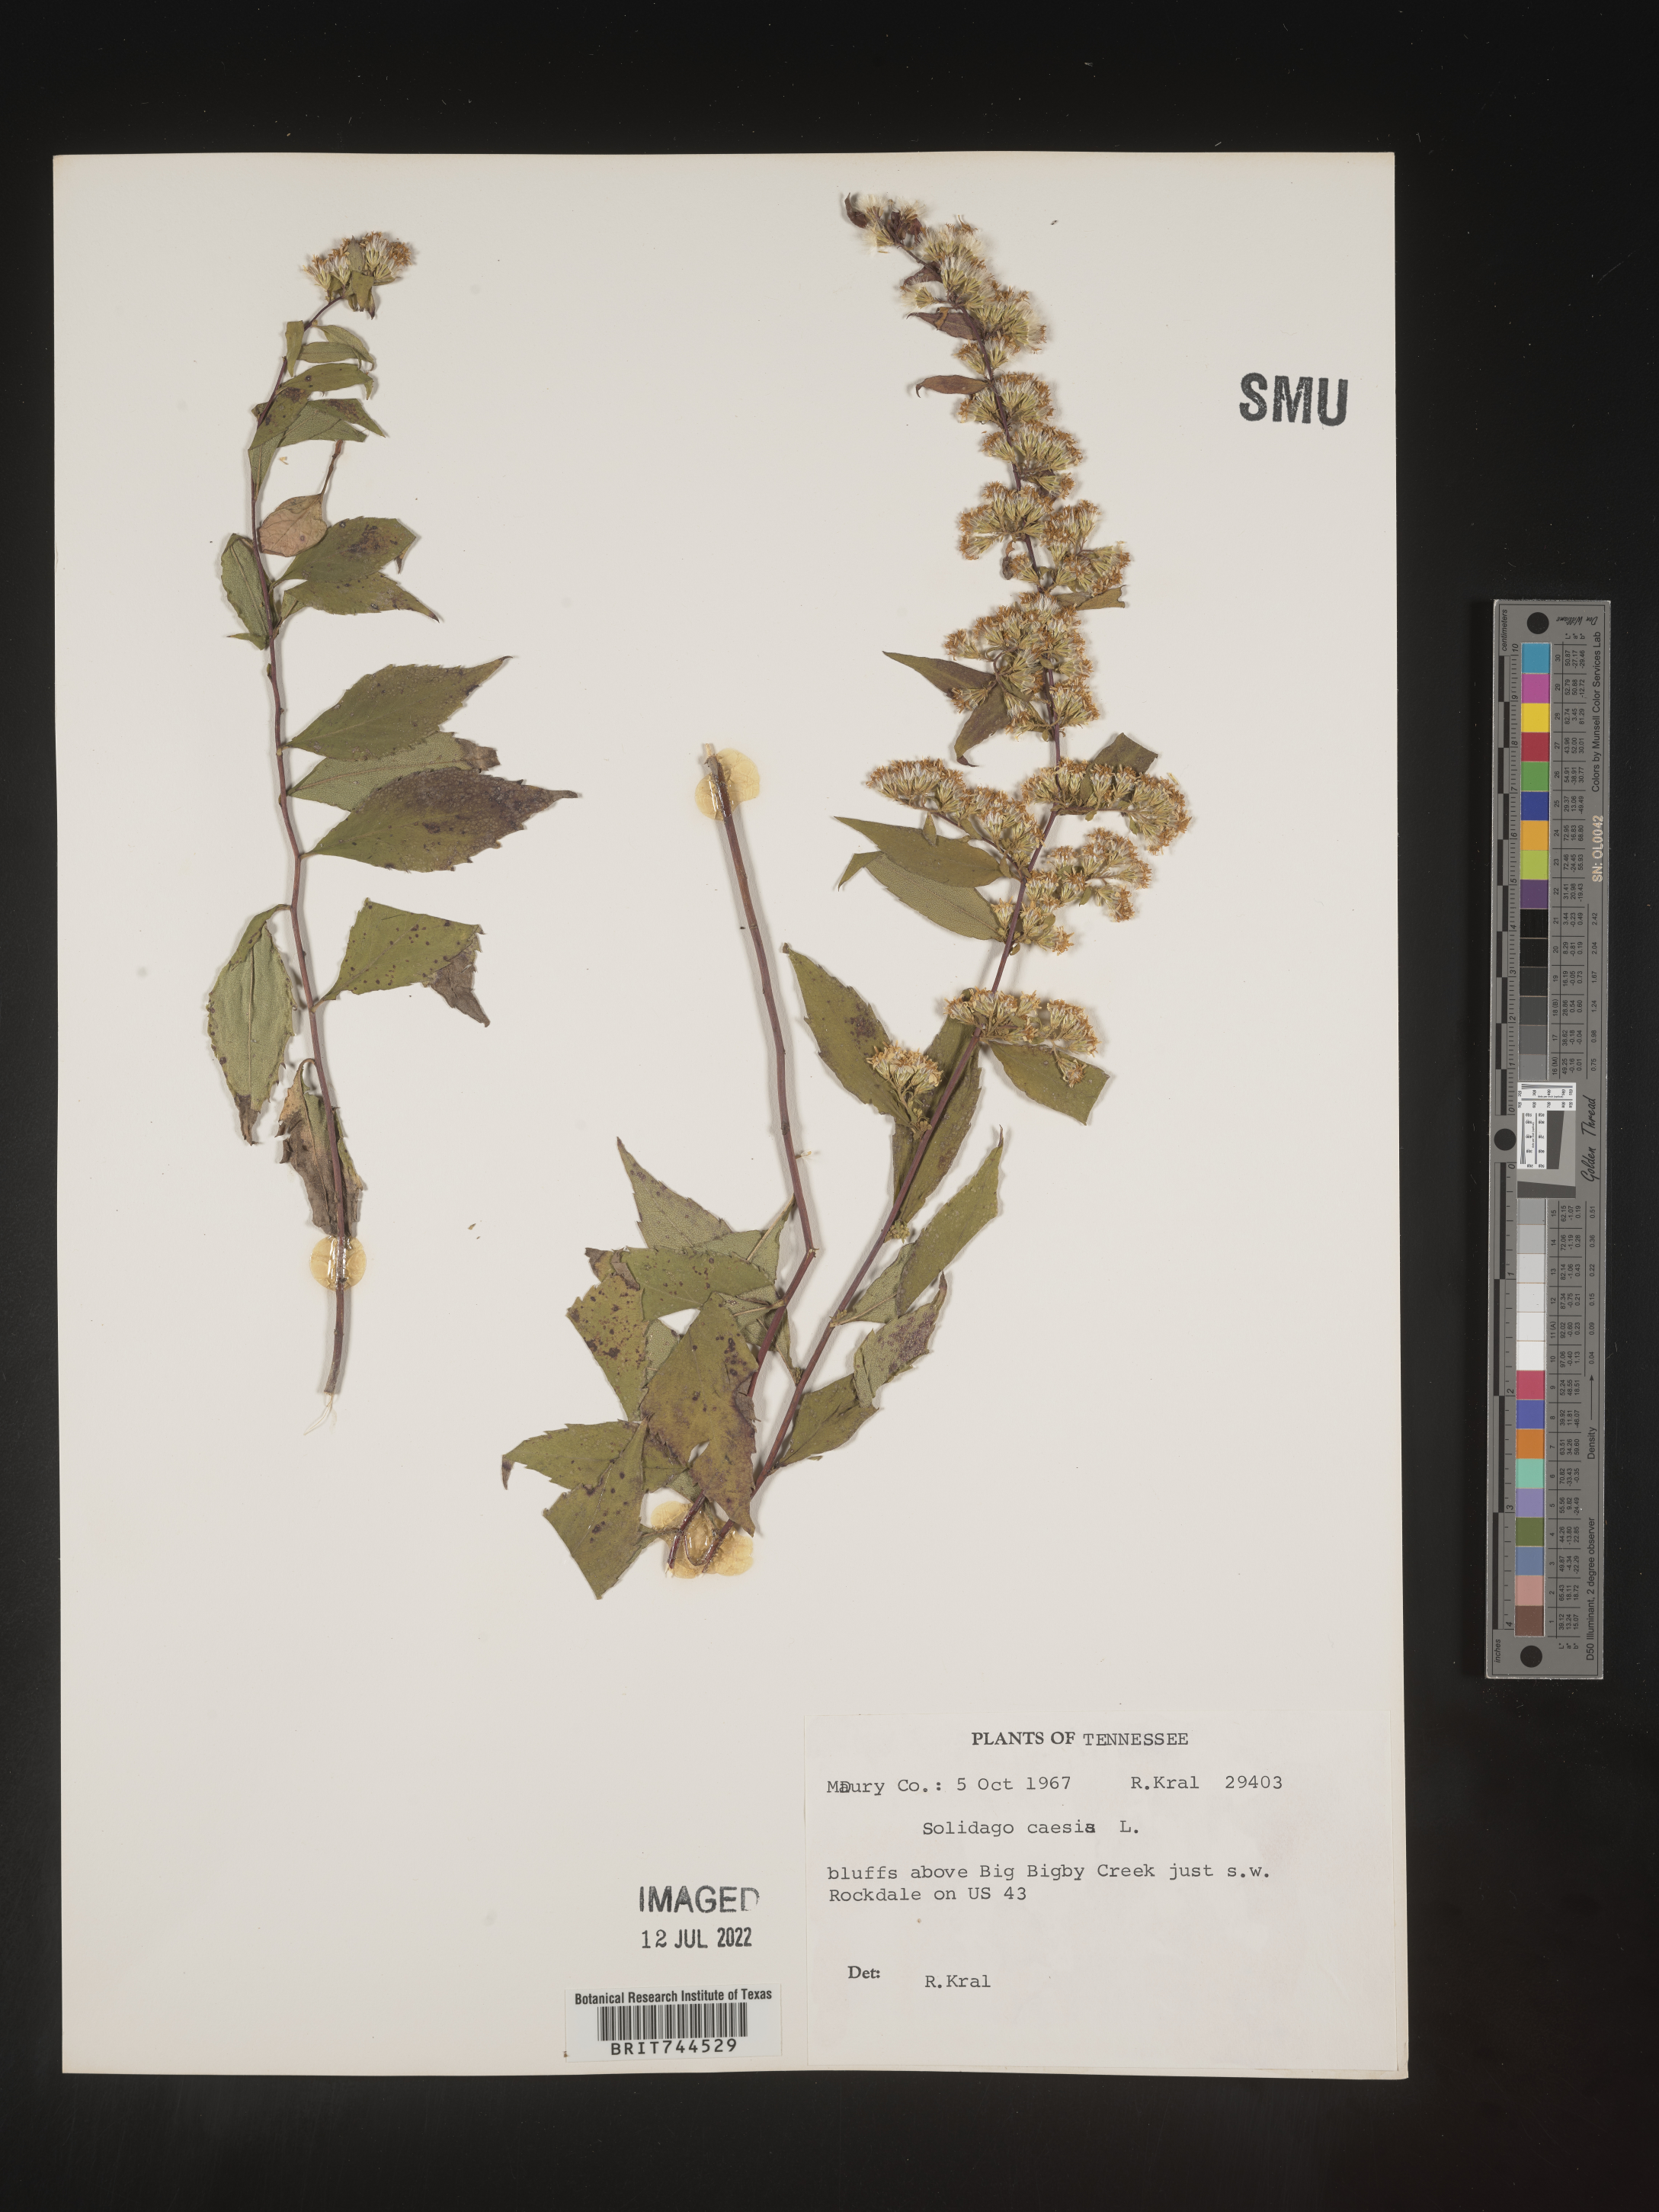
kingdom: Plantae
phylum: Tracheophyta
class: Magnoliopsida
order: Asterales
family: Asteraceae
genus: Solidago
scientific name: Solidago caesia
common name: Woodland goldenrod
